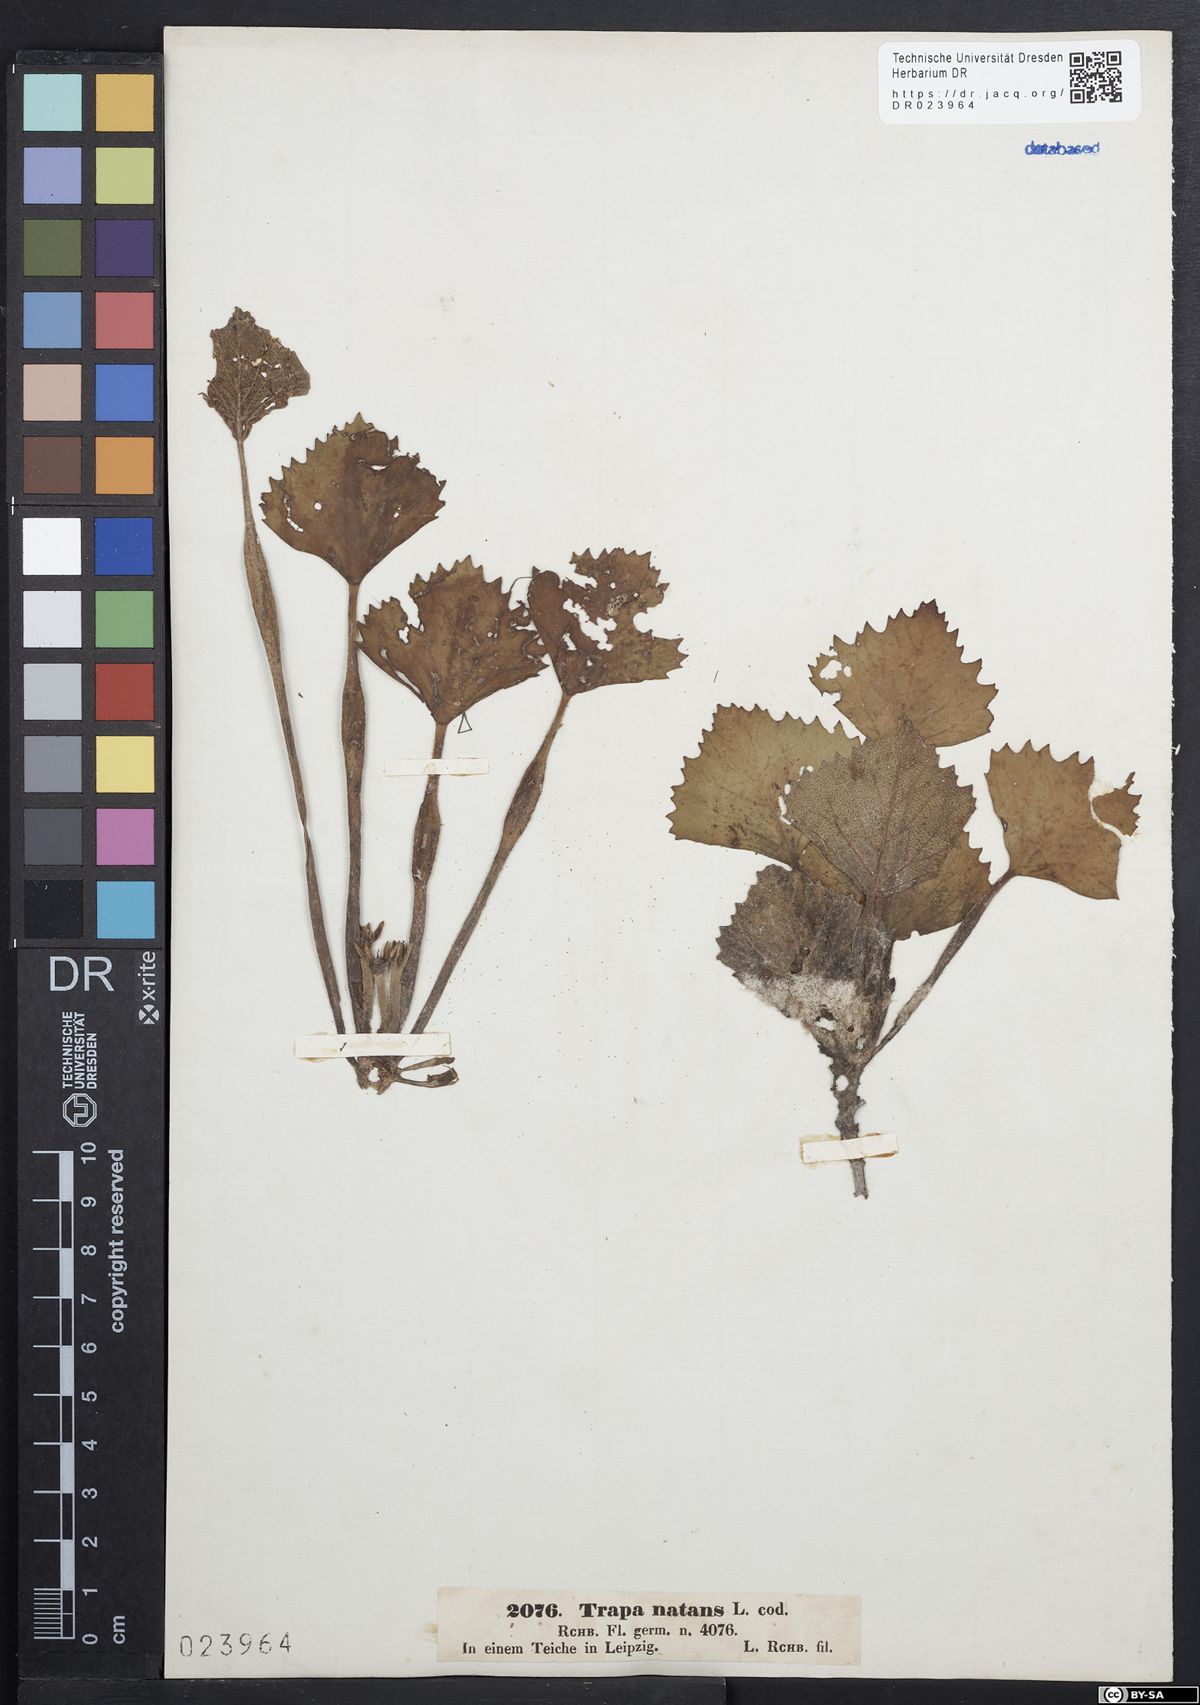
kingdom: Plantae
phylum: Tracheophyta
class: Magnoliopsida
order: Myrtales
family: Lythraceae
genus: Trapa
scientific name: Trapa natans
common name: Water chestnut
